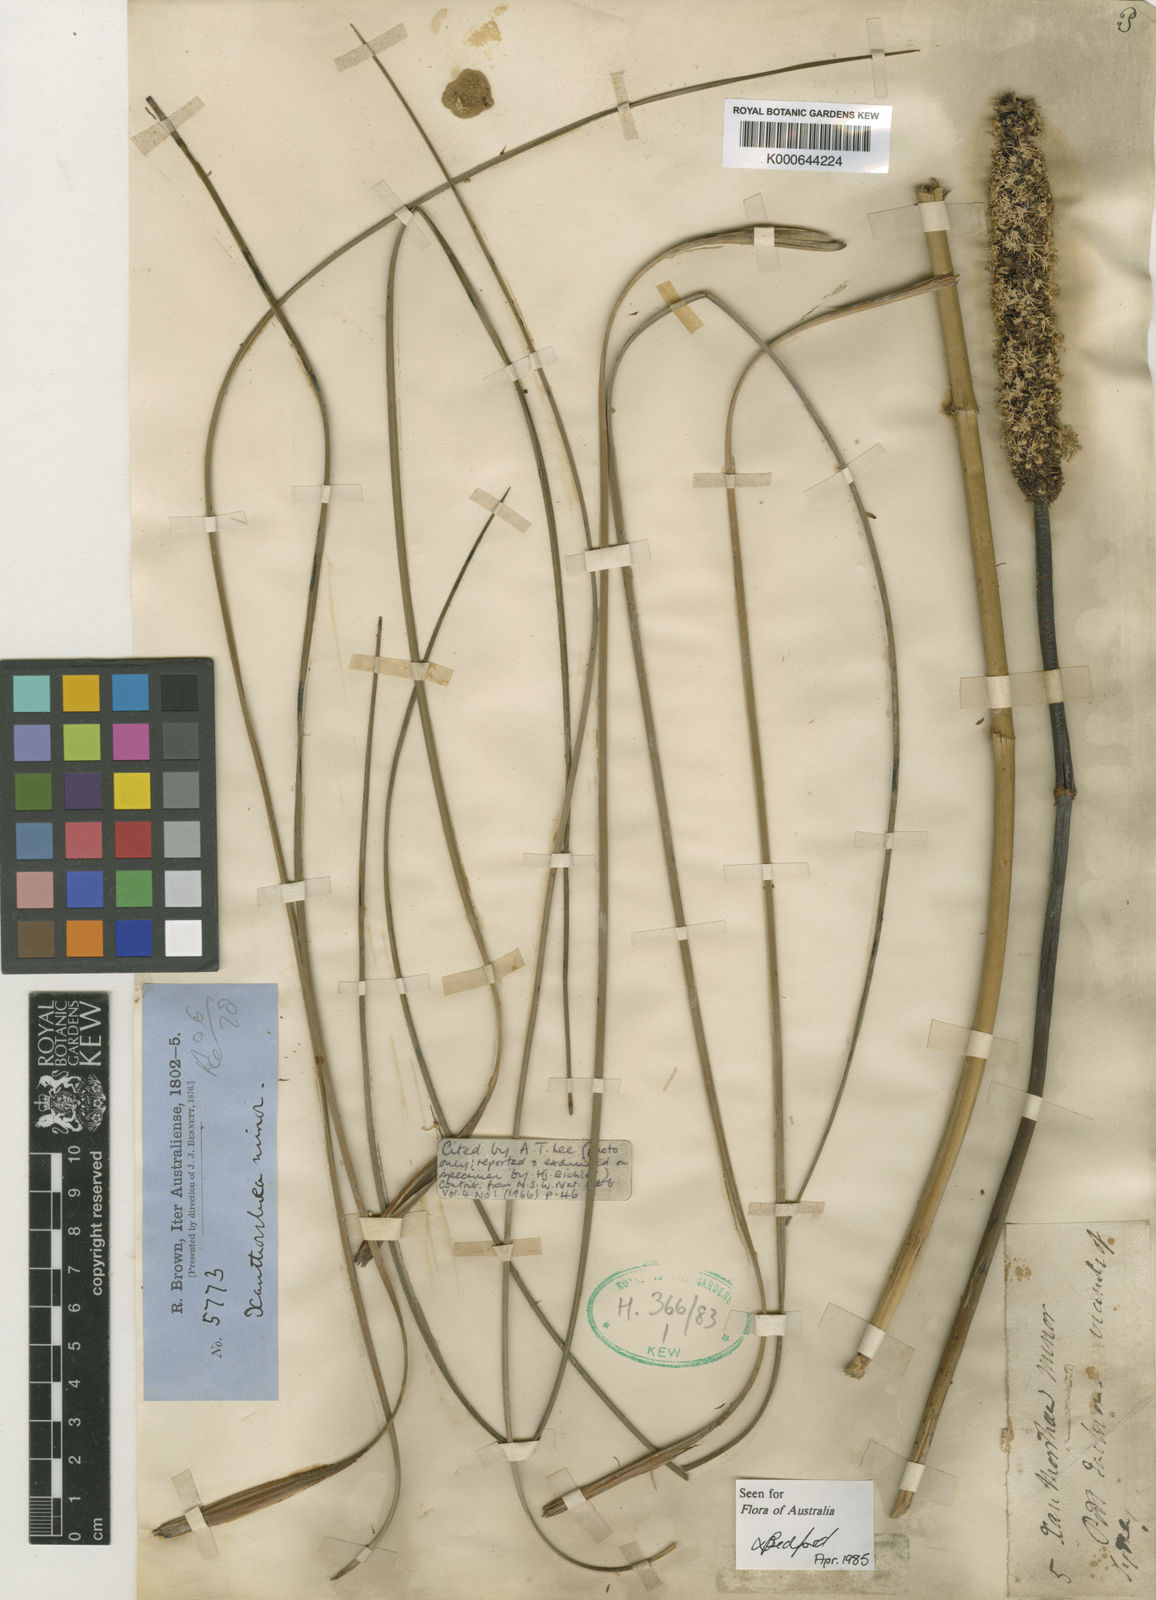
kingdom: Plantae
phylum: Tracheophyta
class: Liliopsida
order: Asparagales
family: Asphodelaceae
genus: Xanthorrhoea
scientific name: Xanthorrhoea minor
